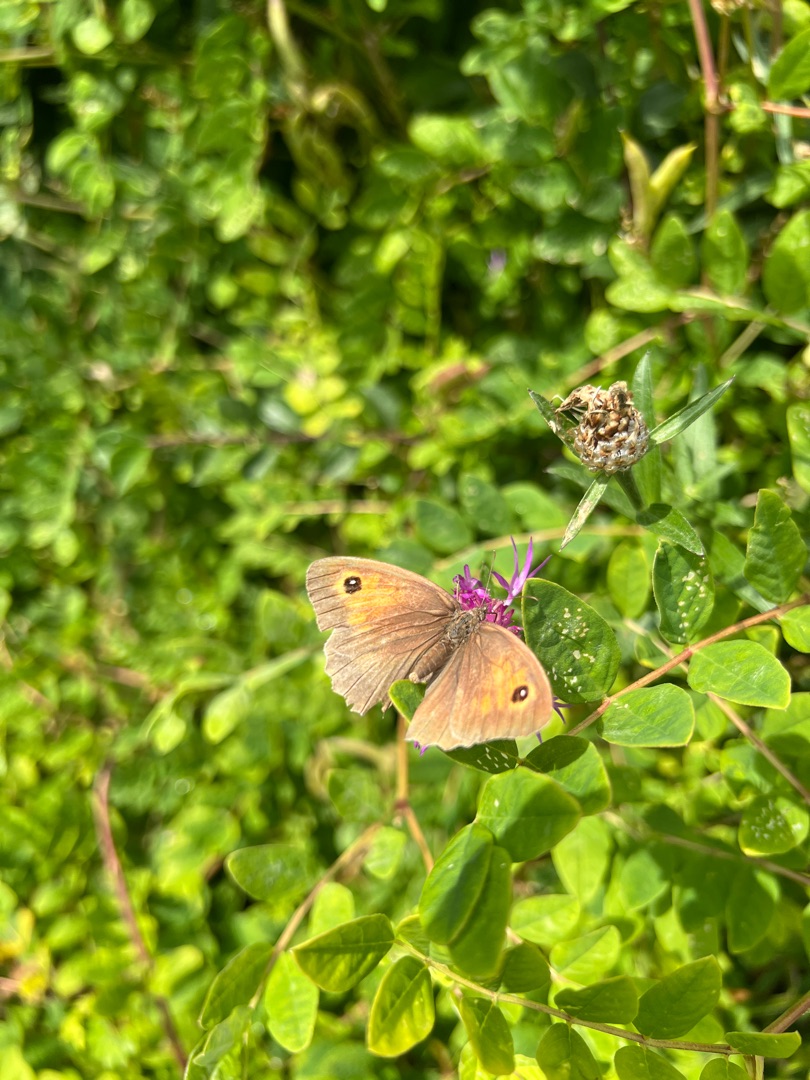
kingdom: Animalia
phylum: Arthropoda
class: Insecta
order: Lepidoptera
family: Nymphalidae
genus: Maniola
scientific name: Maniola jurtina
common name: Græsrandøje
